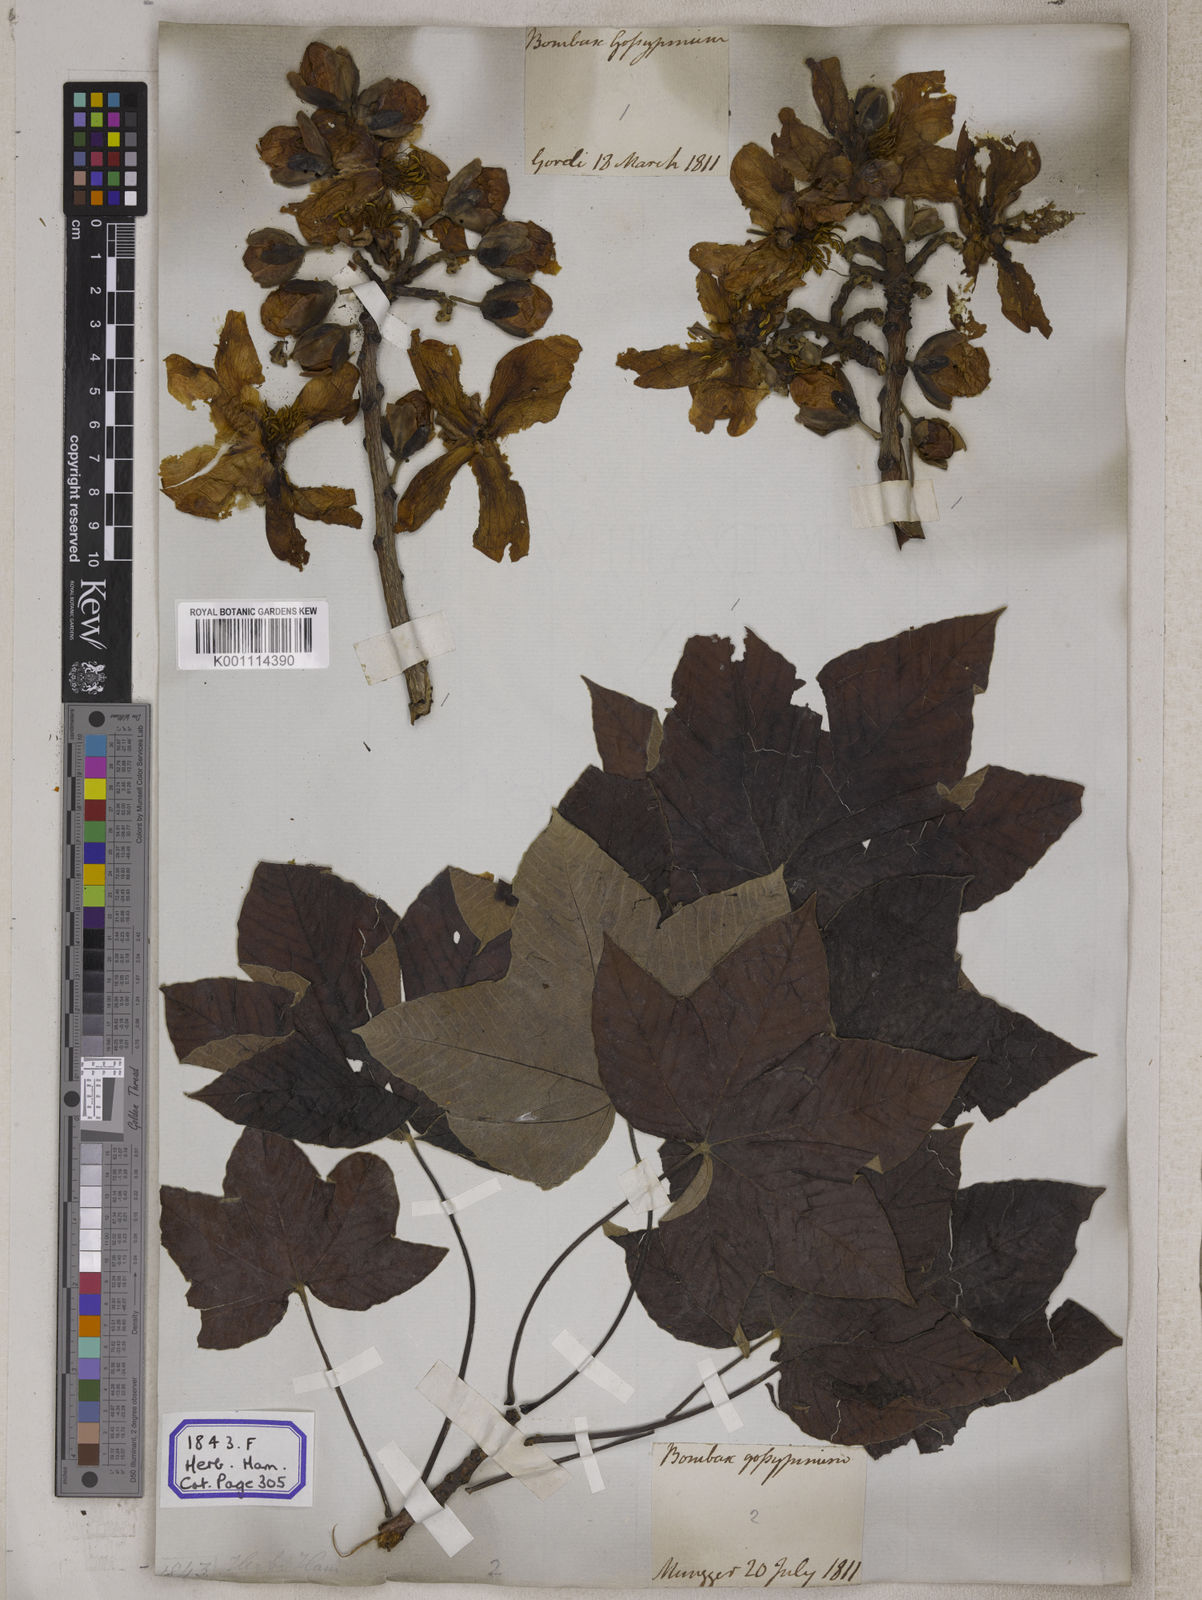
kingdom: Plantae
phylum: Tracheophyta
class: Magnoliopsida
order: Malvales
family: Cochlospermaceae
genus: Cochlospermum
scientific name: Cochlospermum religiosum
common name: Cottontree
